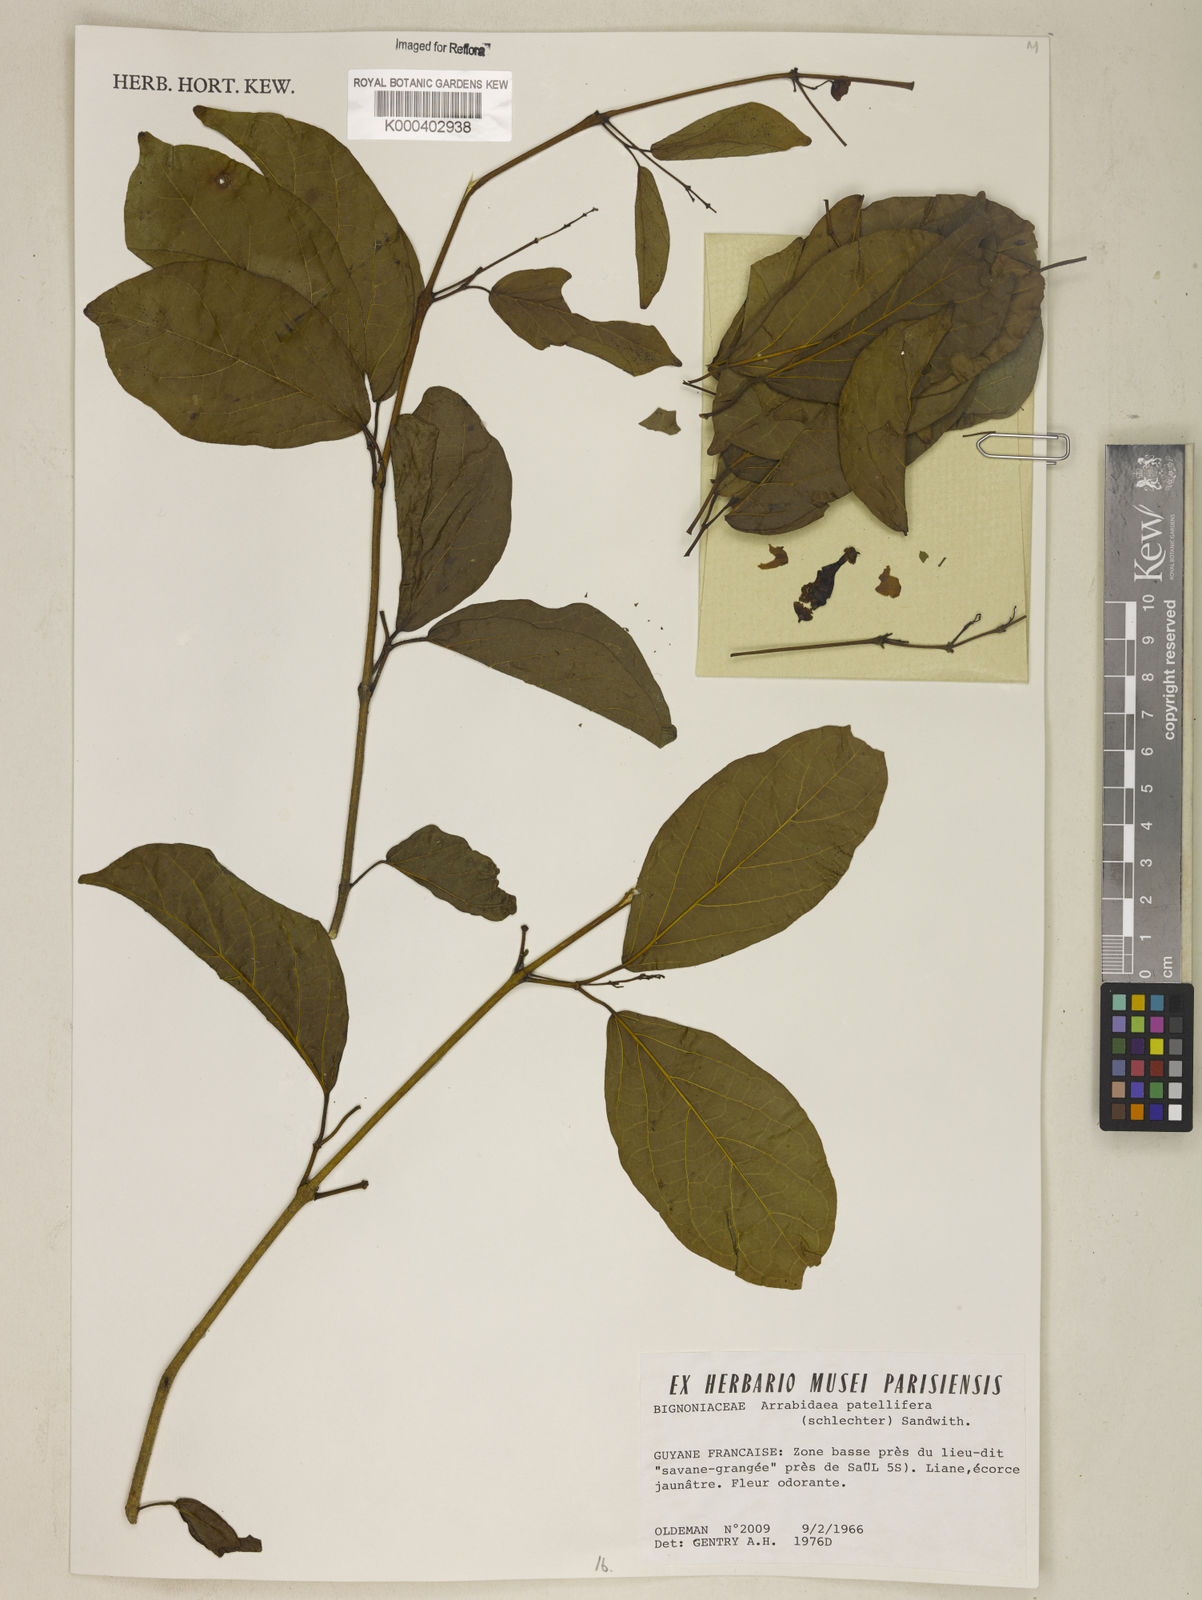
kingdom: Plantae
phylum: Tracheophyta
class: Magnoliopsida
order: Lamiales
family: Bignoniaceae
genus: Fridericia
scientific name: Fridericia patellifera
